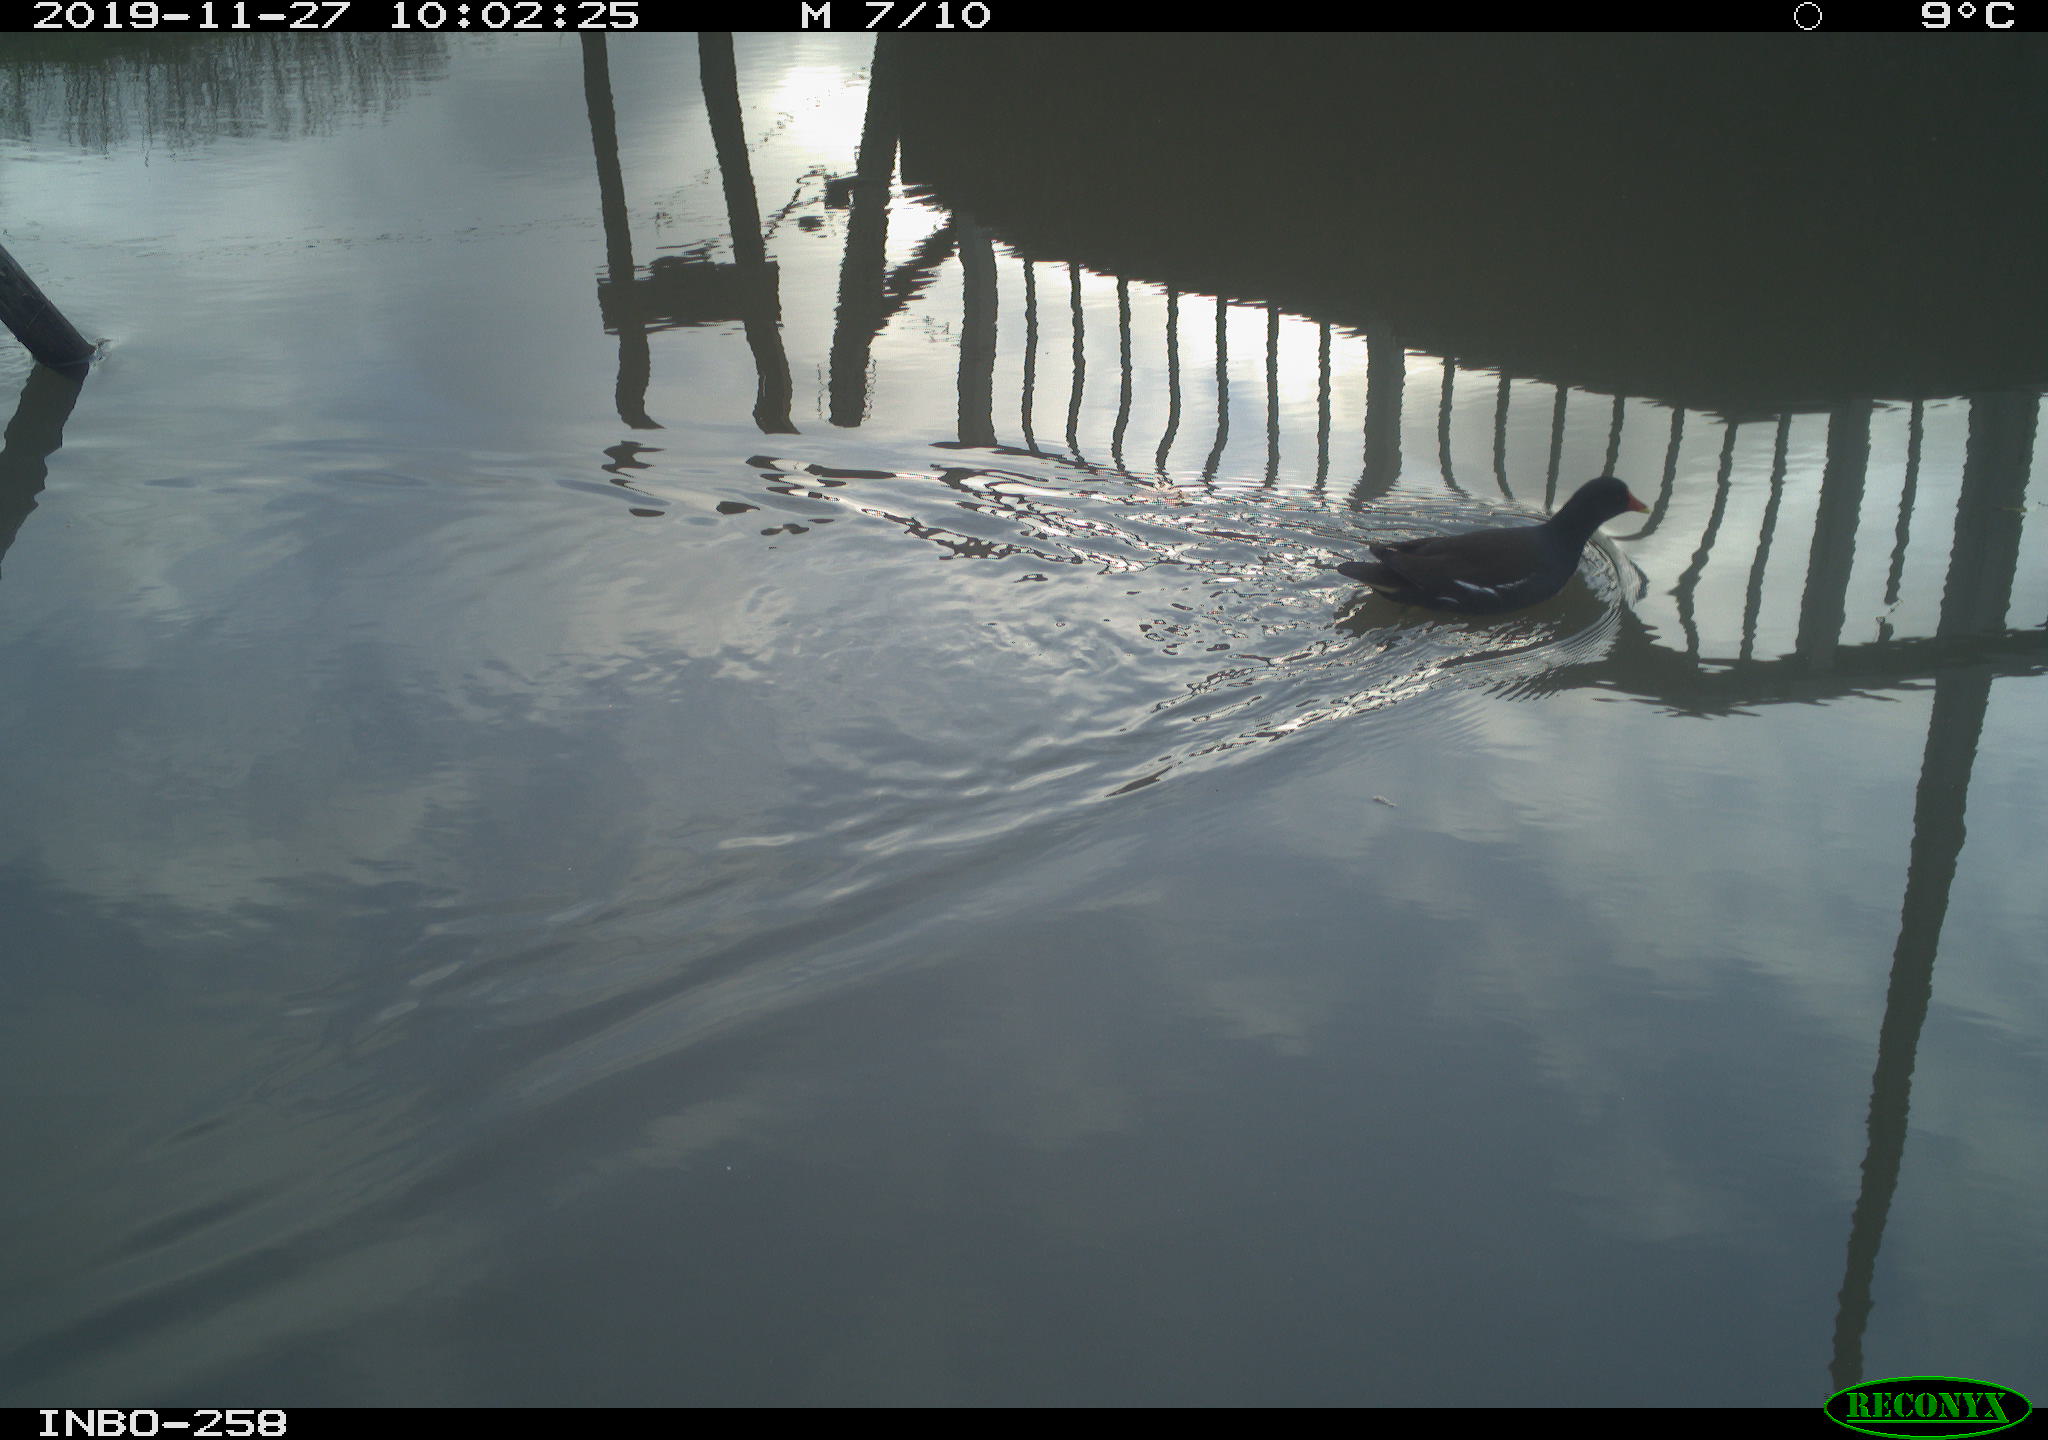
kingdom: Animalia
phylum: Chordata
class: Aves
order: Gruiformes
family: Rallidae
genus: Gallinula
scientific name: Gallinula chloropus
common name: Common moorhen
